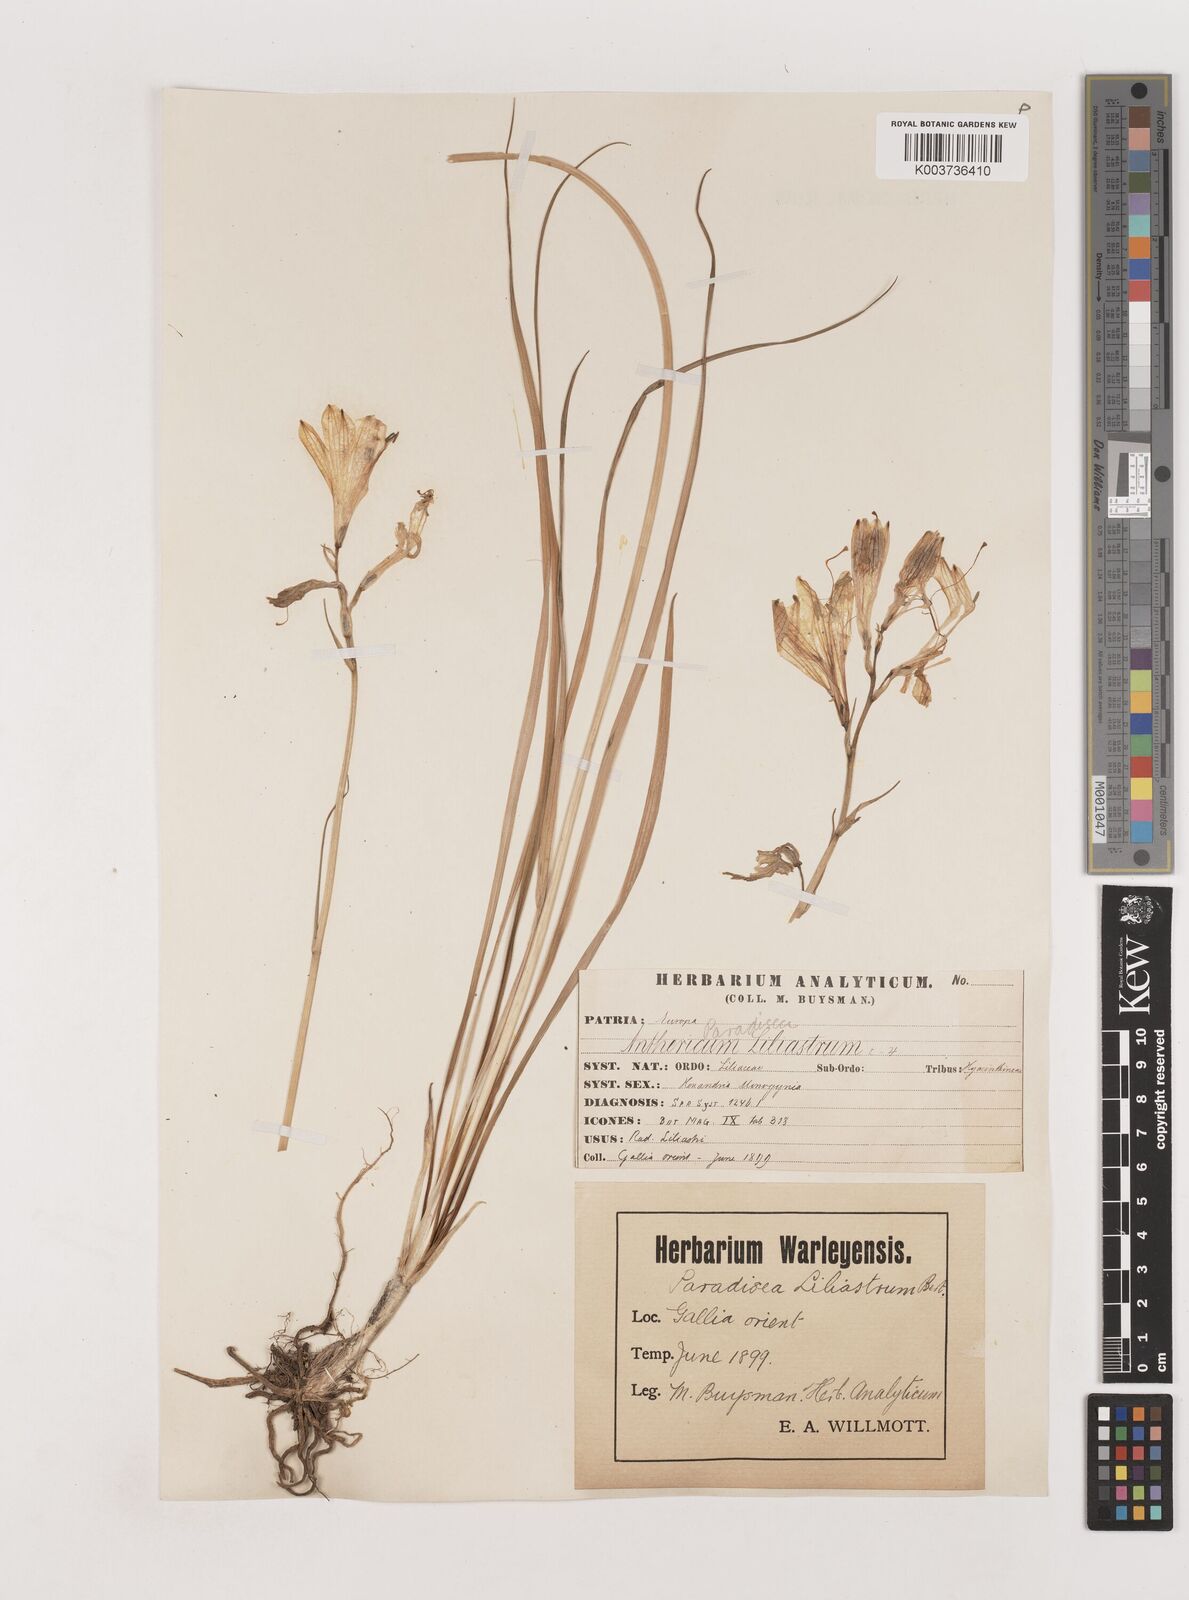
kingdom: Plantae
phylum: Tracheophyta
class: Liliopsida
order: Asparagales
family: Asparagaceae
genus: Paradisea
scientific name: Paradisea liliastrum
